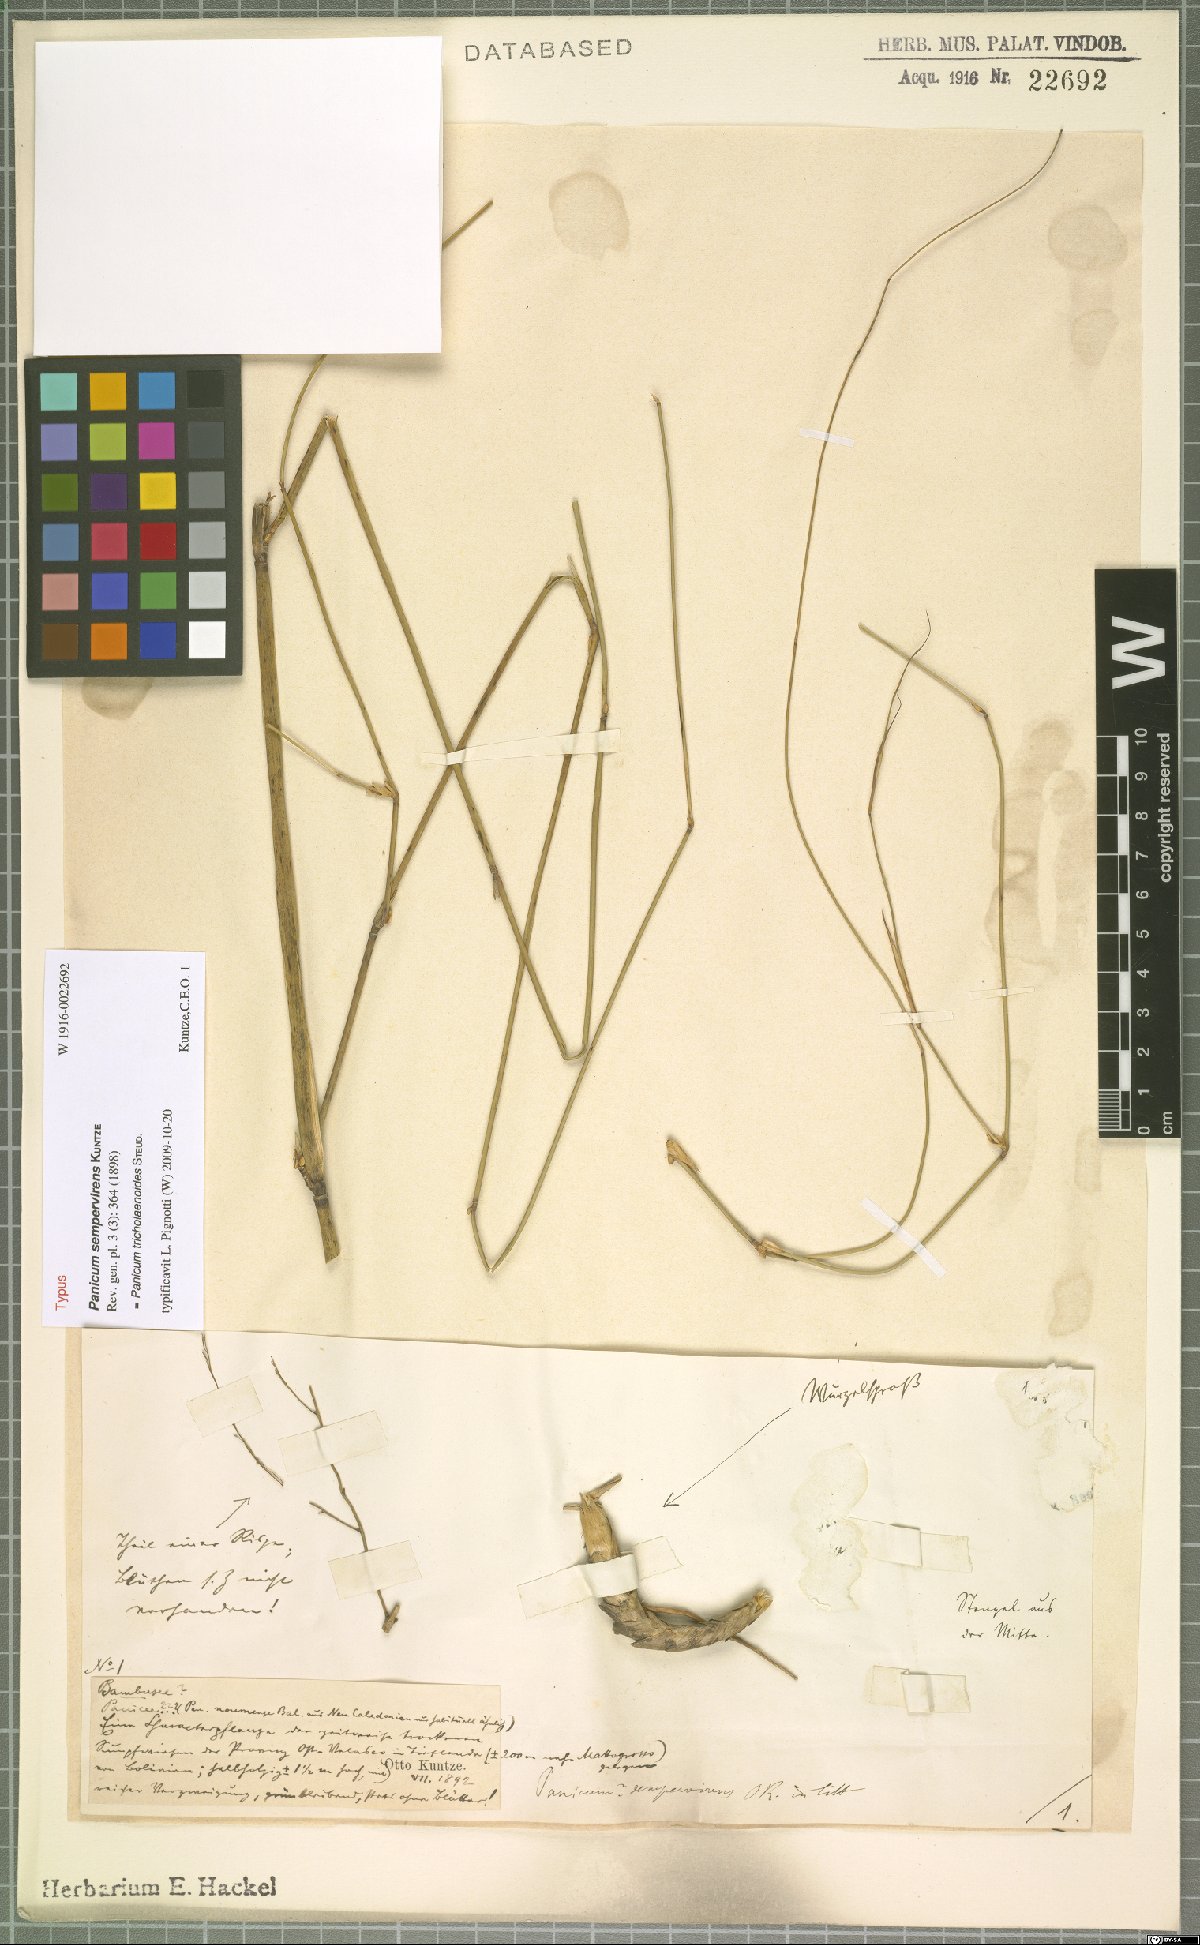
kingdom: Plantae
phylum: Tracheophyta
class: Liliopsida
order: Poales
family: Poaceae
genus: Panicum
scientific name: Panicum tricholaenoides
